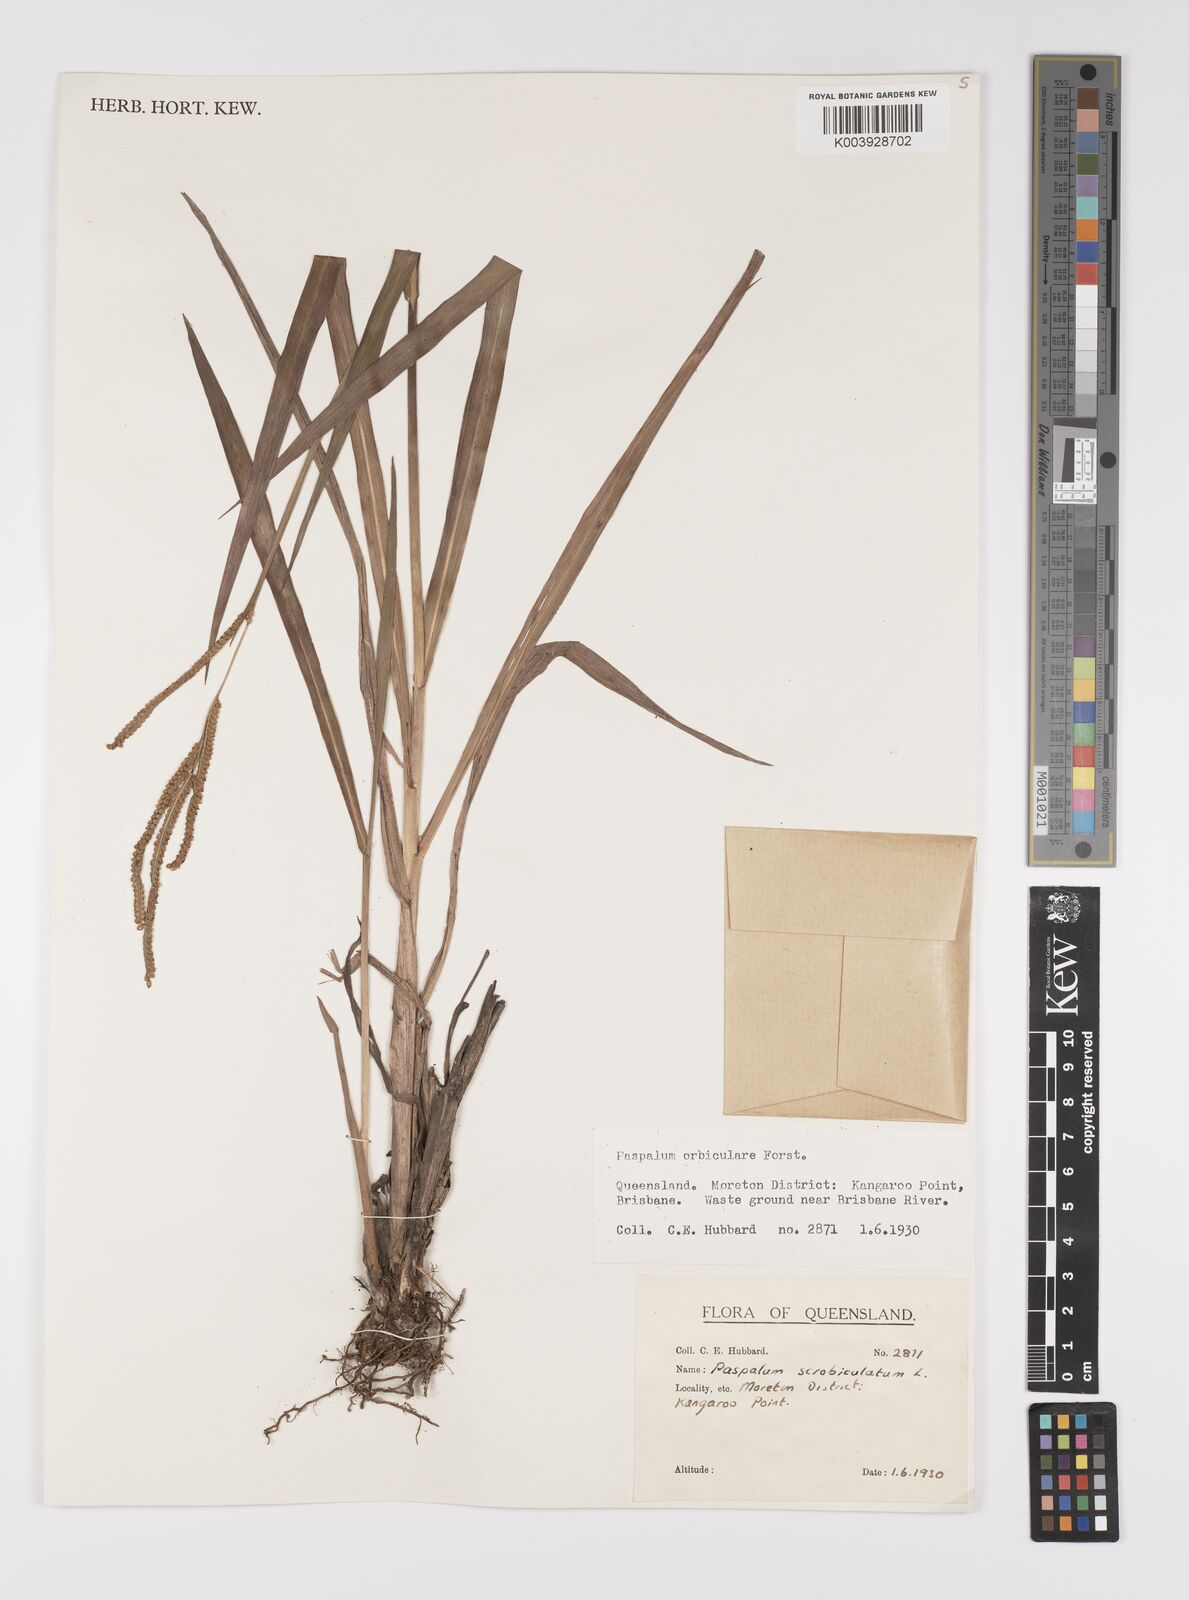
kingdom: Plantae
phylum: Tracheophyta
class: Liliopsida
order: Poales
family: Poaceae
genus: Paspalum
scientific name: Paspalum scrobiculatum
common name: Kodo millet
